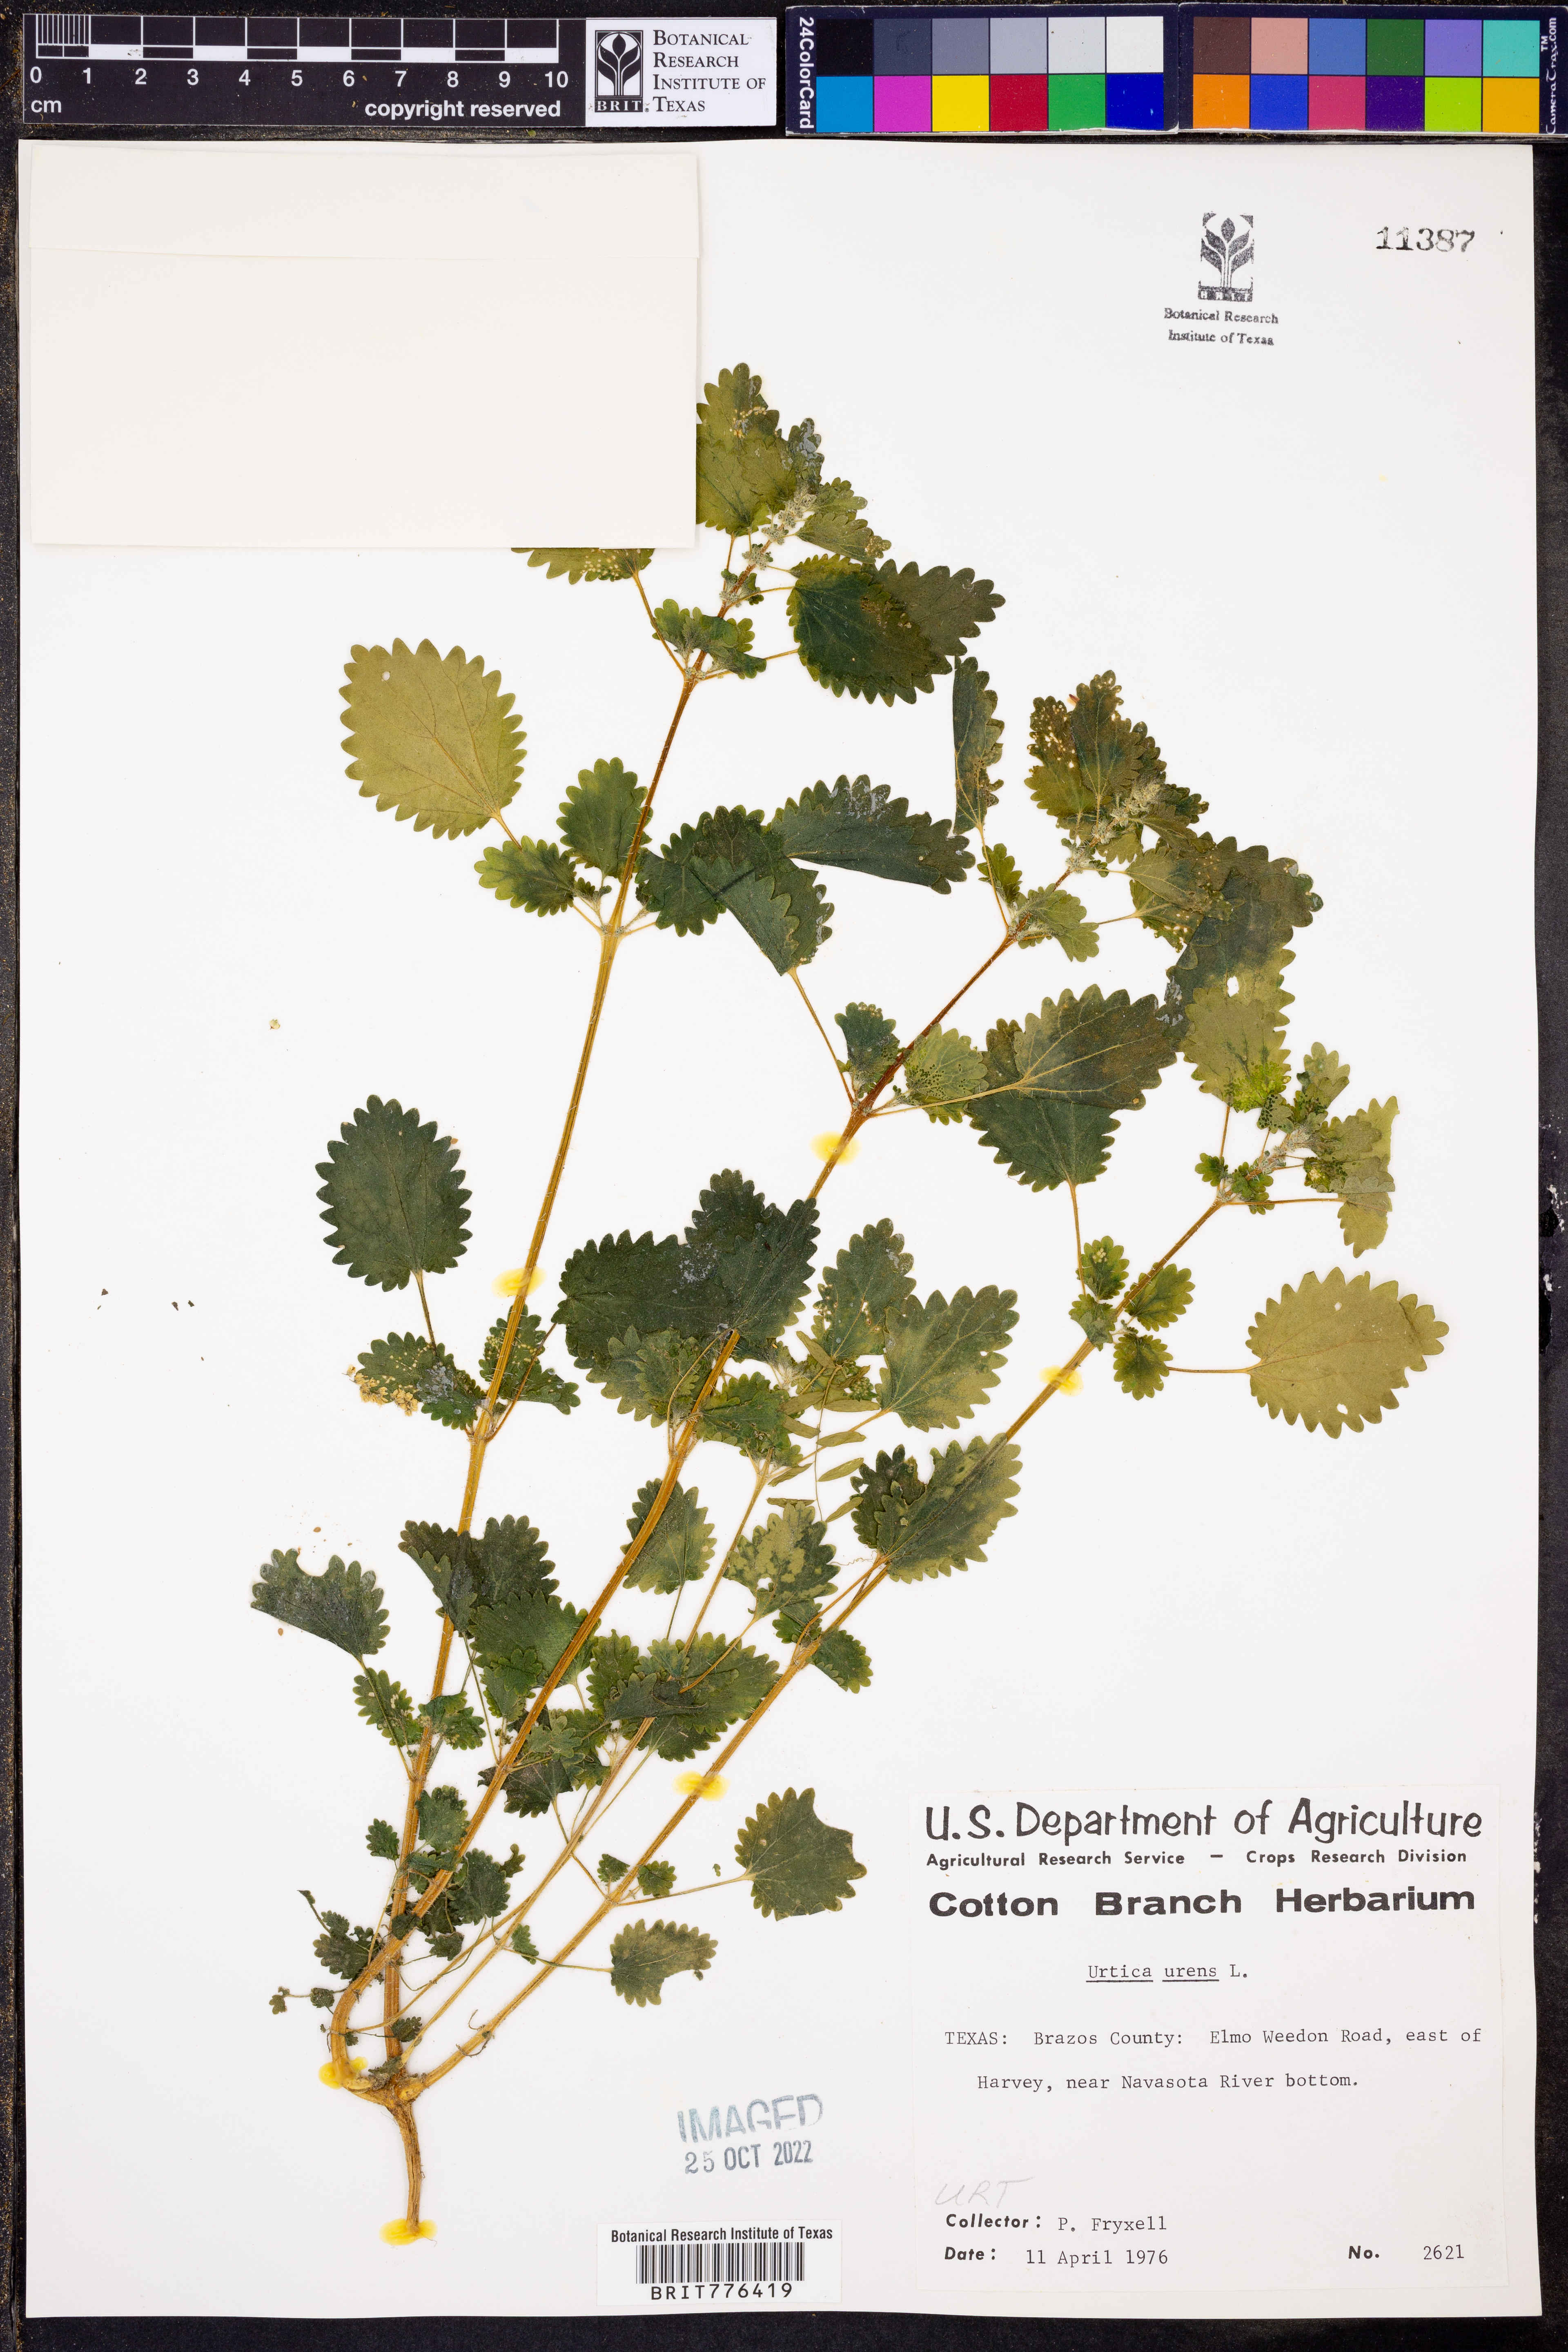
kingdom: Plantae
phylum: Tracheophyta
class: Magnoliopsida
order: Rosales
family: Urticaceae
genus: Urtica
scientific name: Urtica urens
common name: Dwarf nettle
